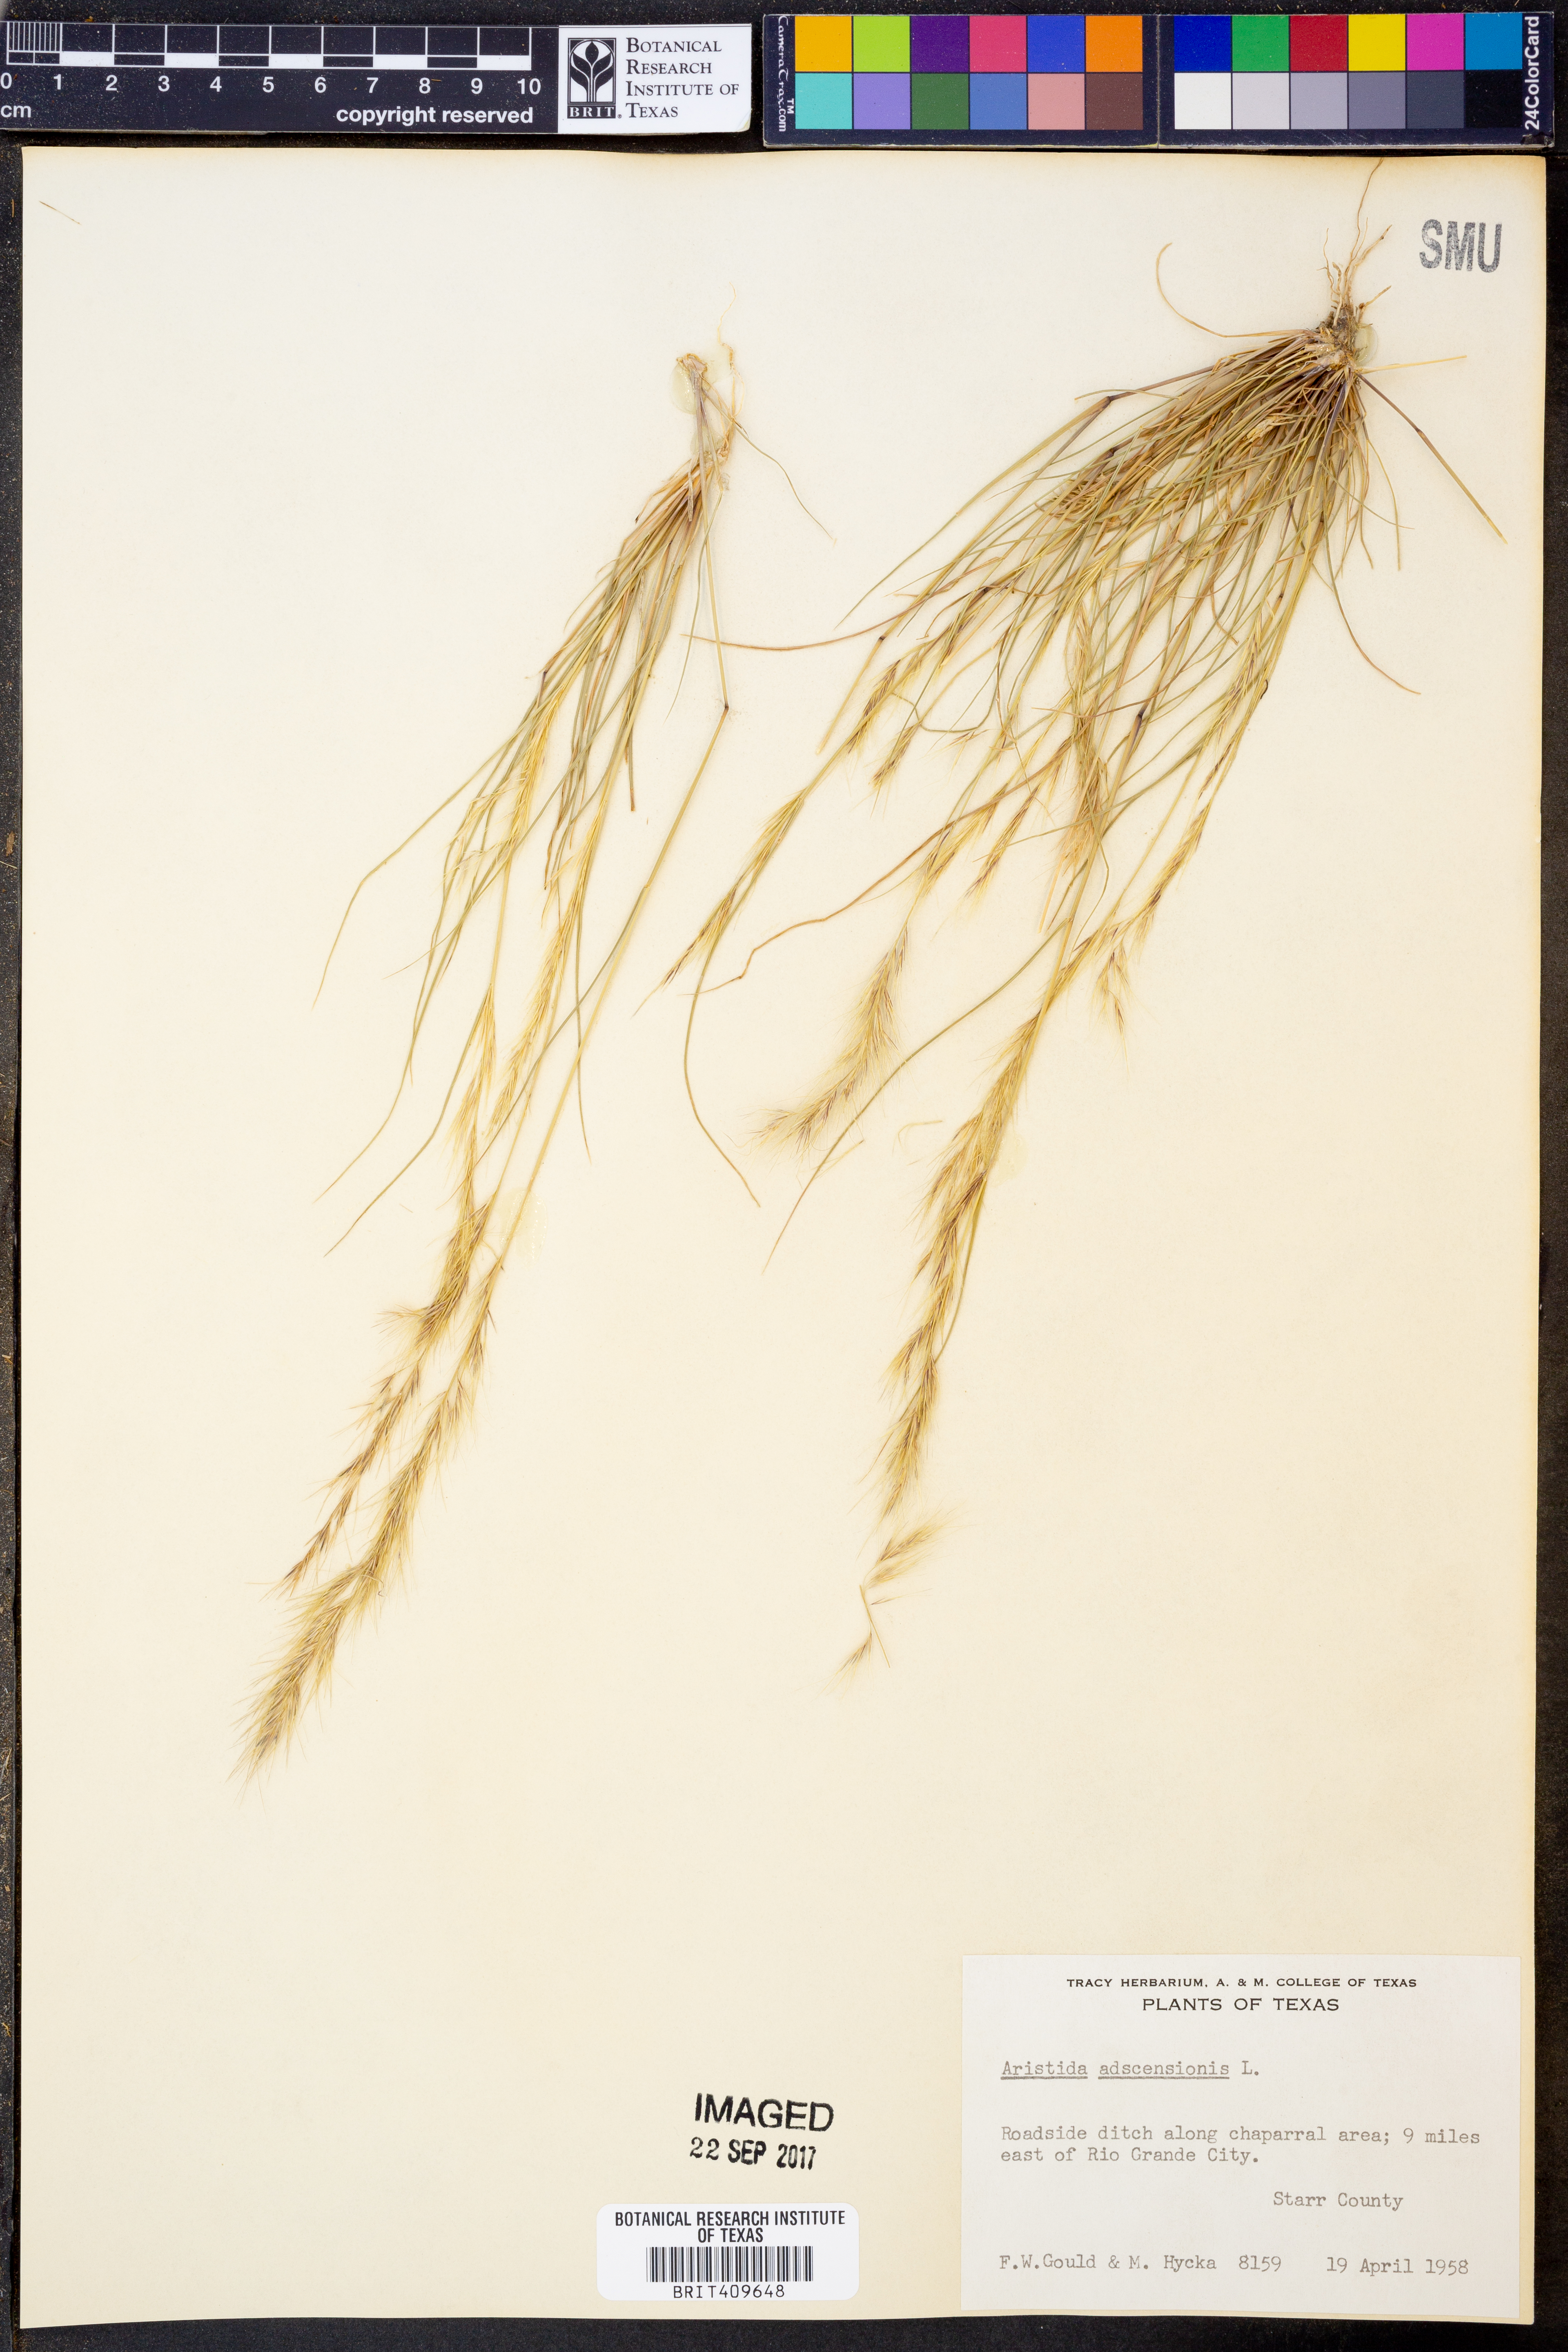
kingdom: Plantae
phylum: Tracheophyta
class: Liliopsida
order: Poales
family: Poaceae
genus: Aristida
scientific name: Aristida adscensionis
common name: Sixweeks threeawn
